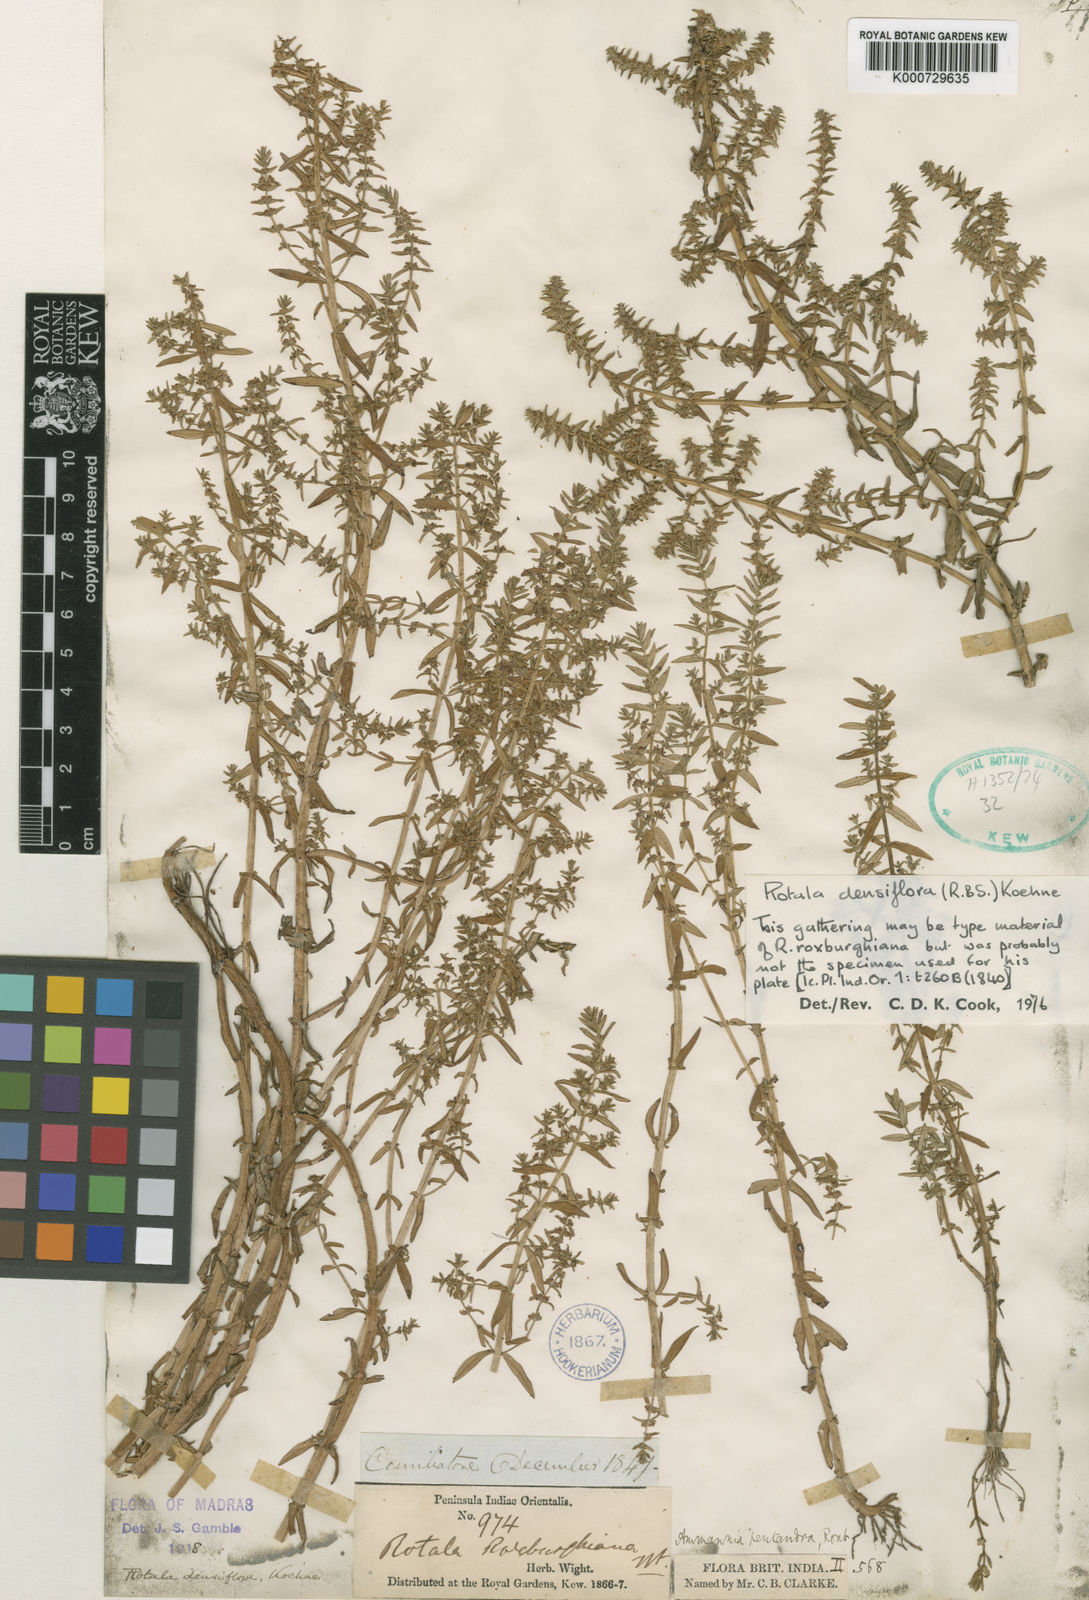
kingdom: Plantae
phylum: Tracheophyta
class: Magnoliopsida
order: Myrtales
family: Lythraceae
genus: Rotala
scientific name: Rotala densiflora
